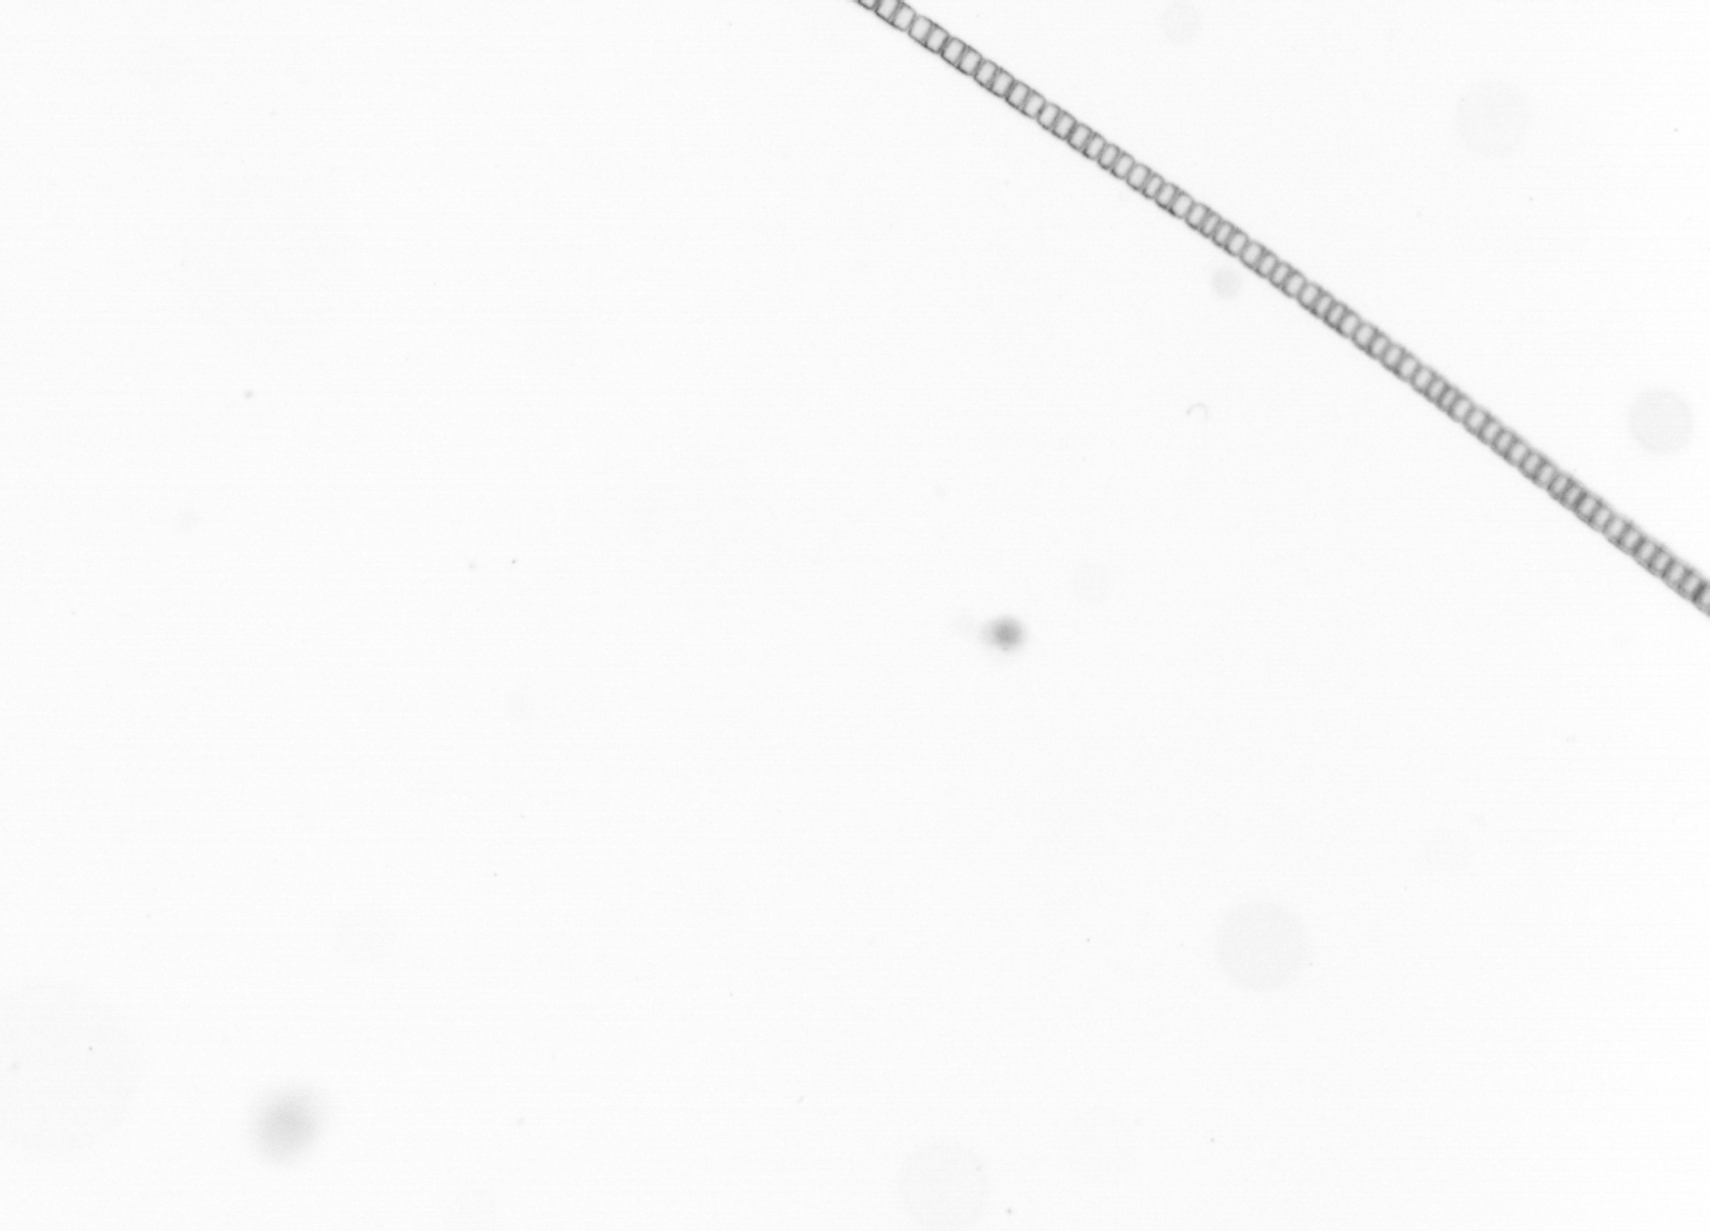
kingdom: Chromista
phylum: Ochrophyta
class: Bacillariophyceae
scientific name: Bacillariophyceae
